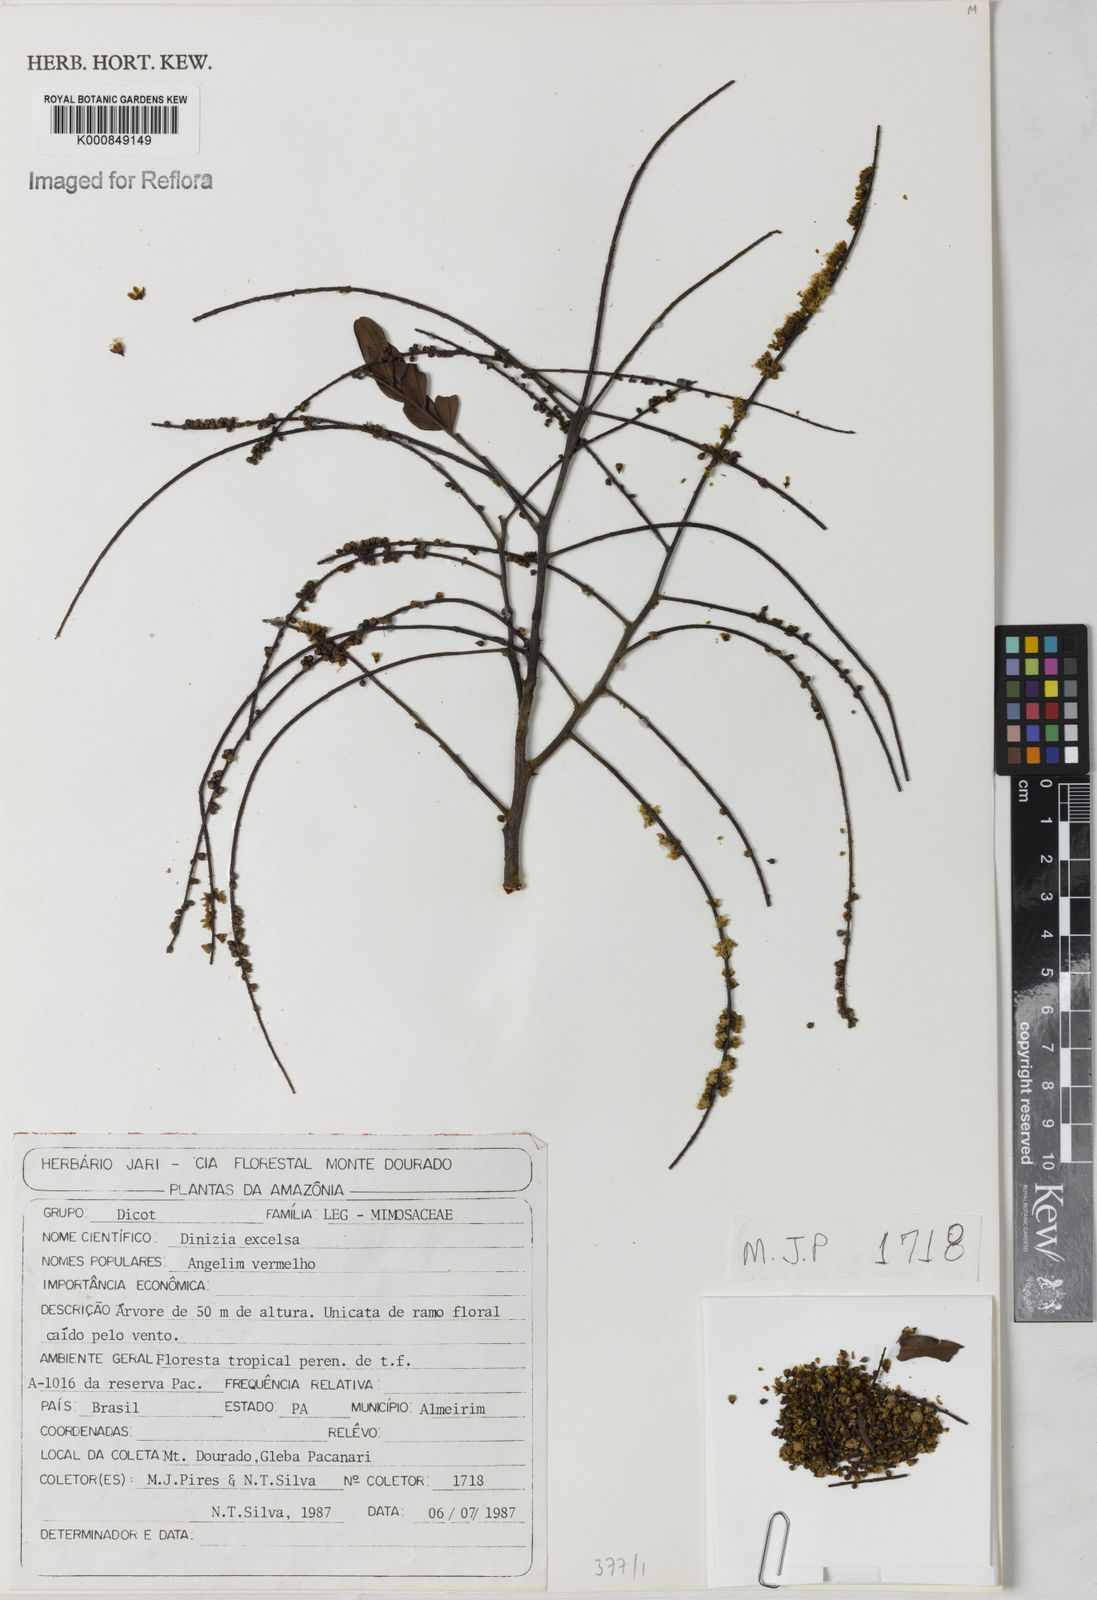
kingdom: Plantae
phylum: Tracheophyta
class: Magnoliopsida
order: Fabales
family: Fabaceae
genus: Dinizia
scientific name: Dinizia excelsa
